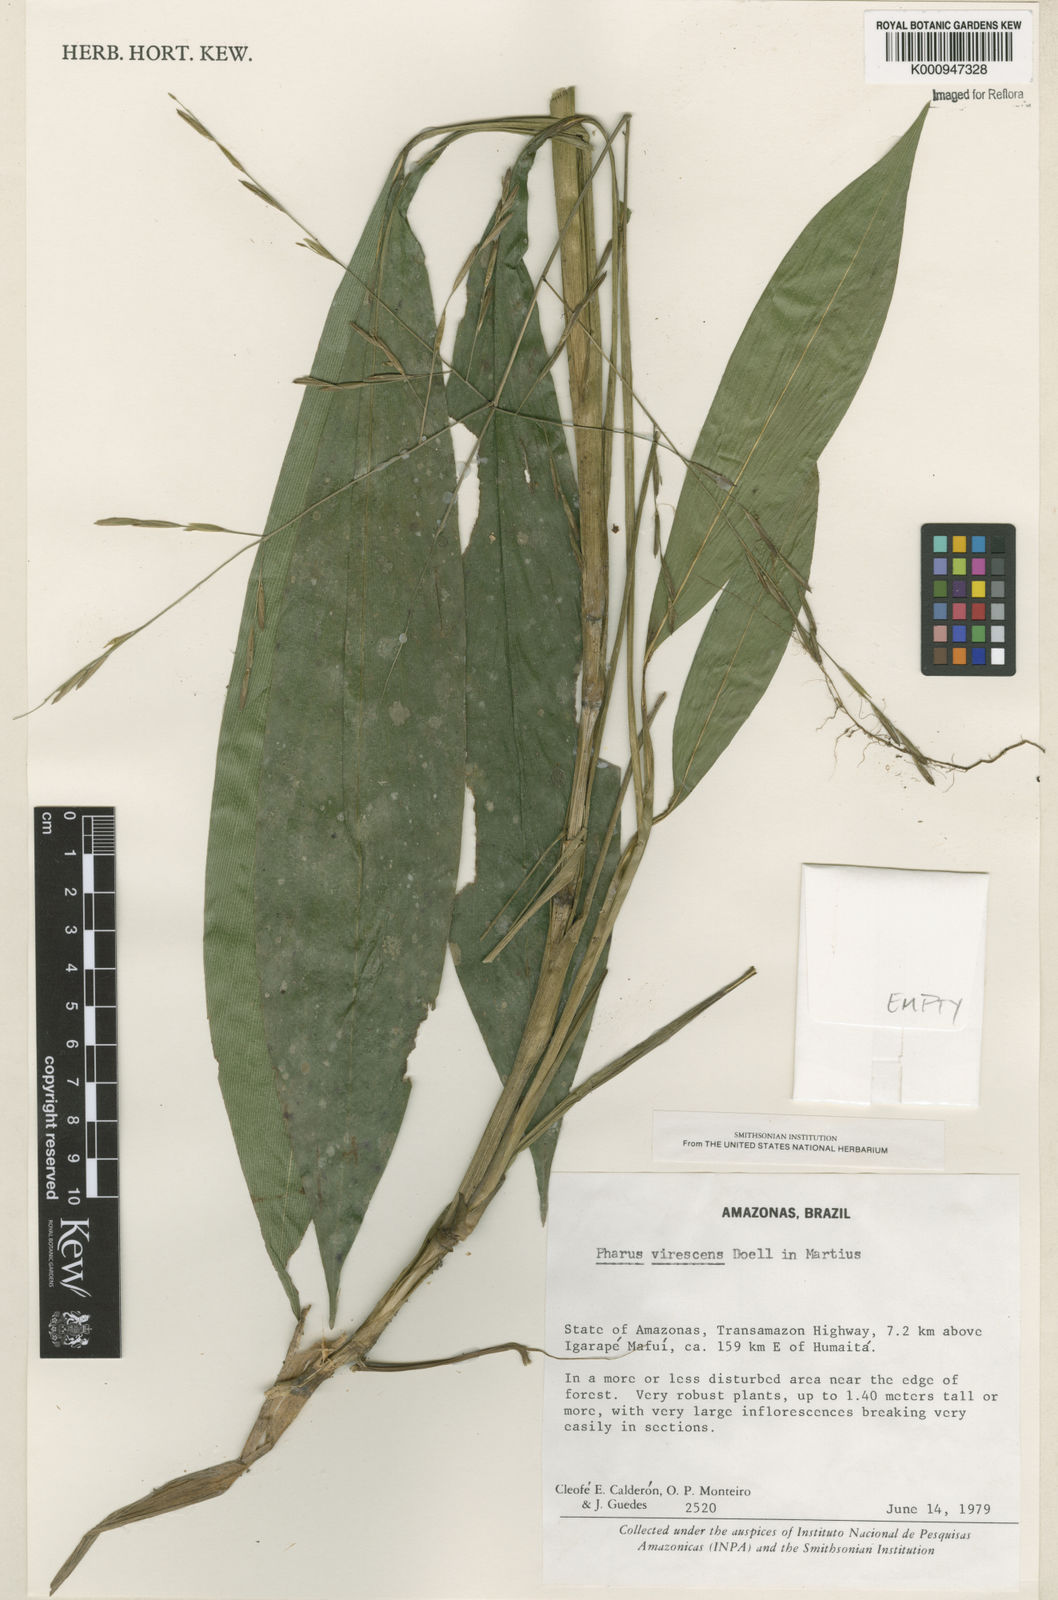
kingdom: Plantae
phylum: Tracheophyta
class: Liliopsida
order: Poales
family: Poaceae
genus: Pharus
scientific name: Pharus
